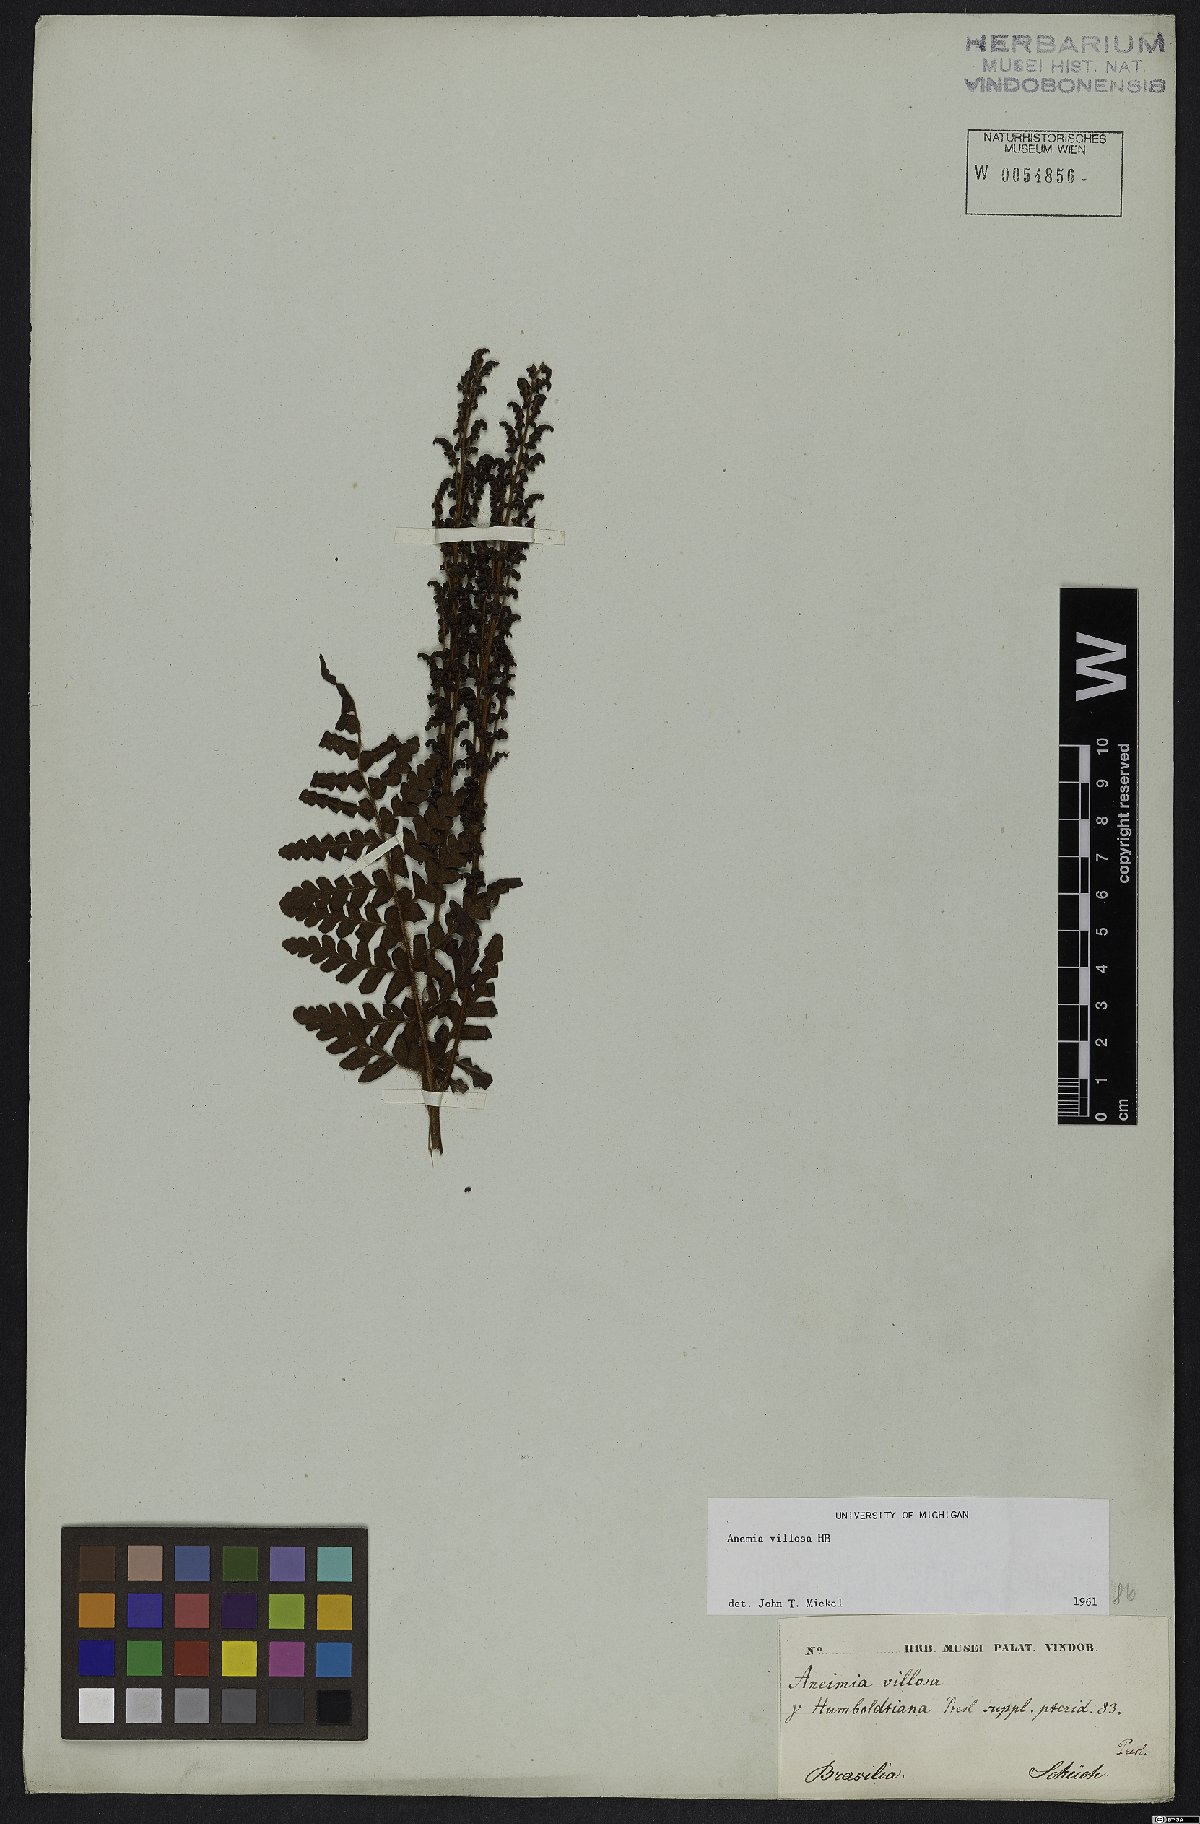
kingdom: Plantae
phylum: Tracheophyta
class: Polypodiopsida
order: Schizaeales
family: Anemiaceae
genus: Anemia
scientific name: Anemia villosa
